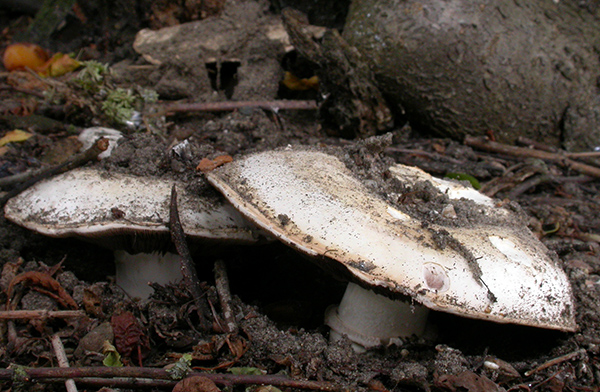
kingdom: Fungi
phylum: Basidiomycota
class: Agaricomycetes
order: Agaricales
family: Agaricaceae
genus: Agaricus
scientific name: Agaricus bitorquis
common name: vej-champignon
